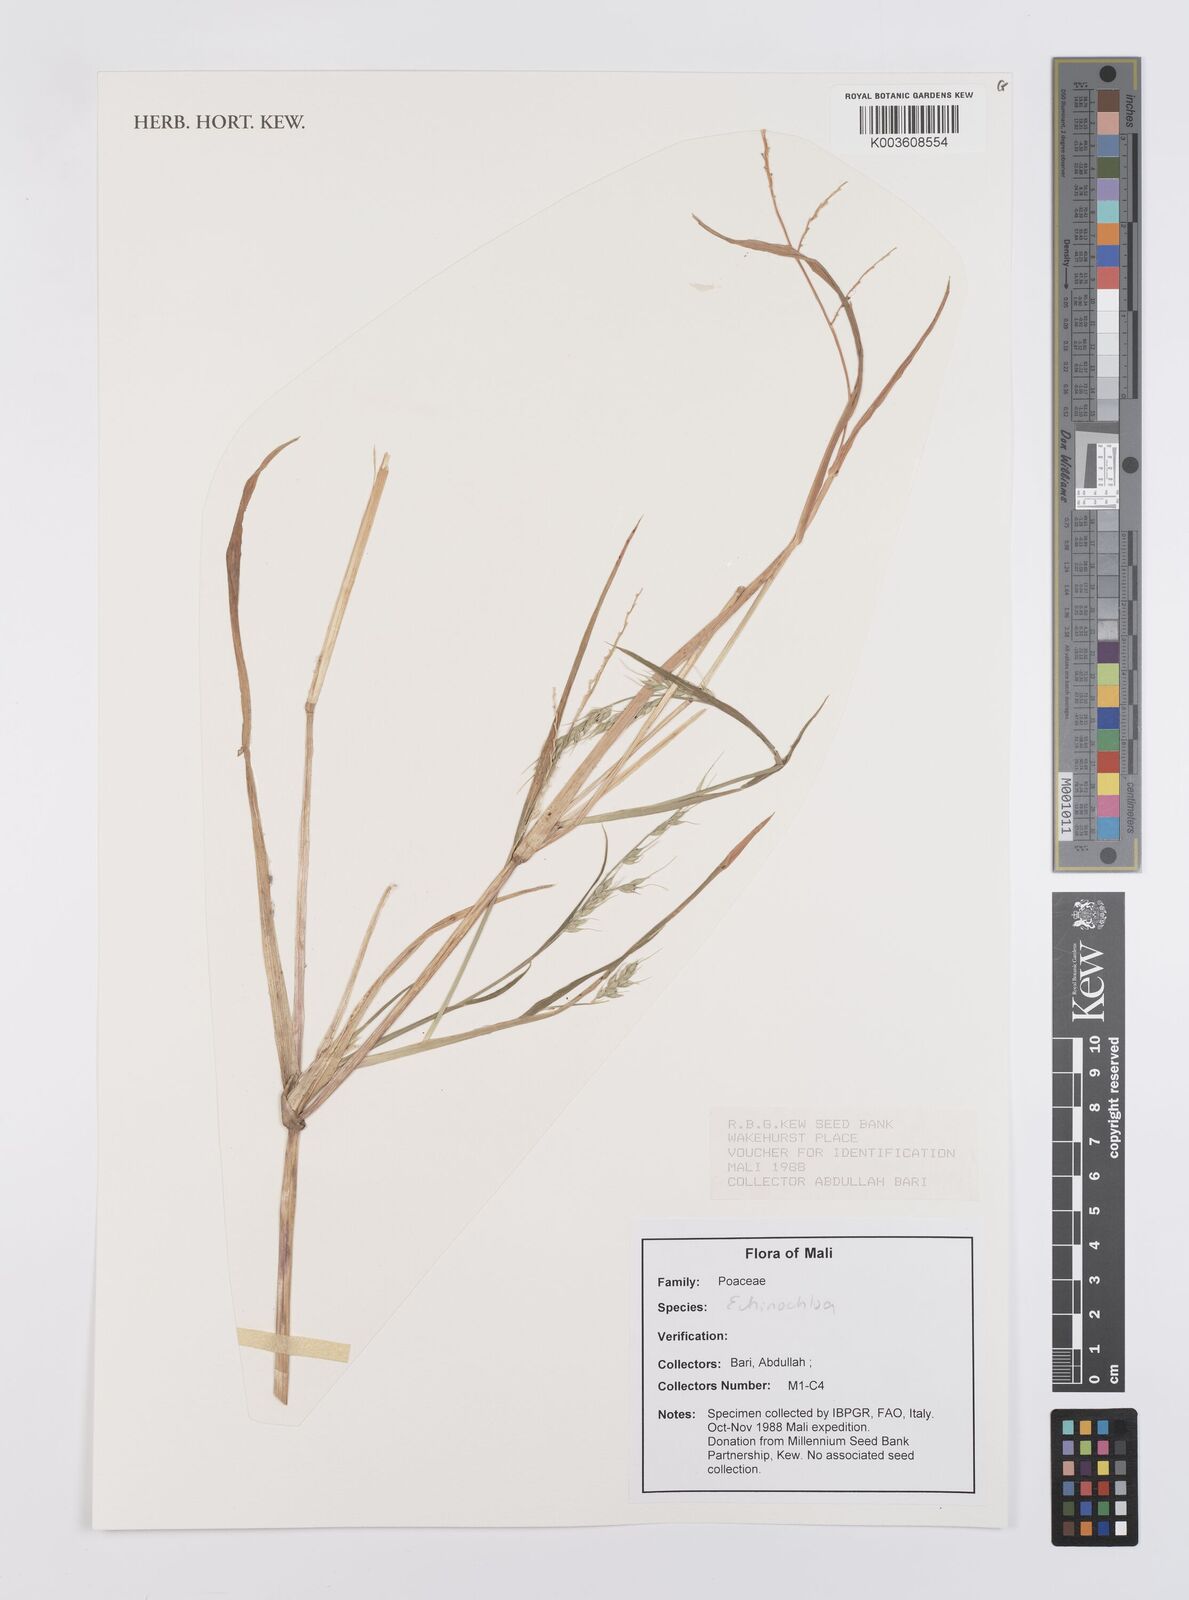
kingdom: Plantae
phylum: Tracheophyta
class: Liliopsida
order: Poales
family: Poaceae
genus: Echinochloa
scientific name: Echinochloa
